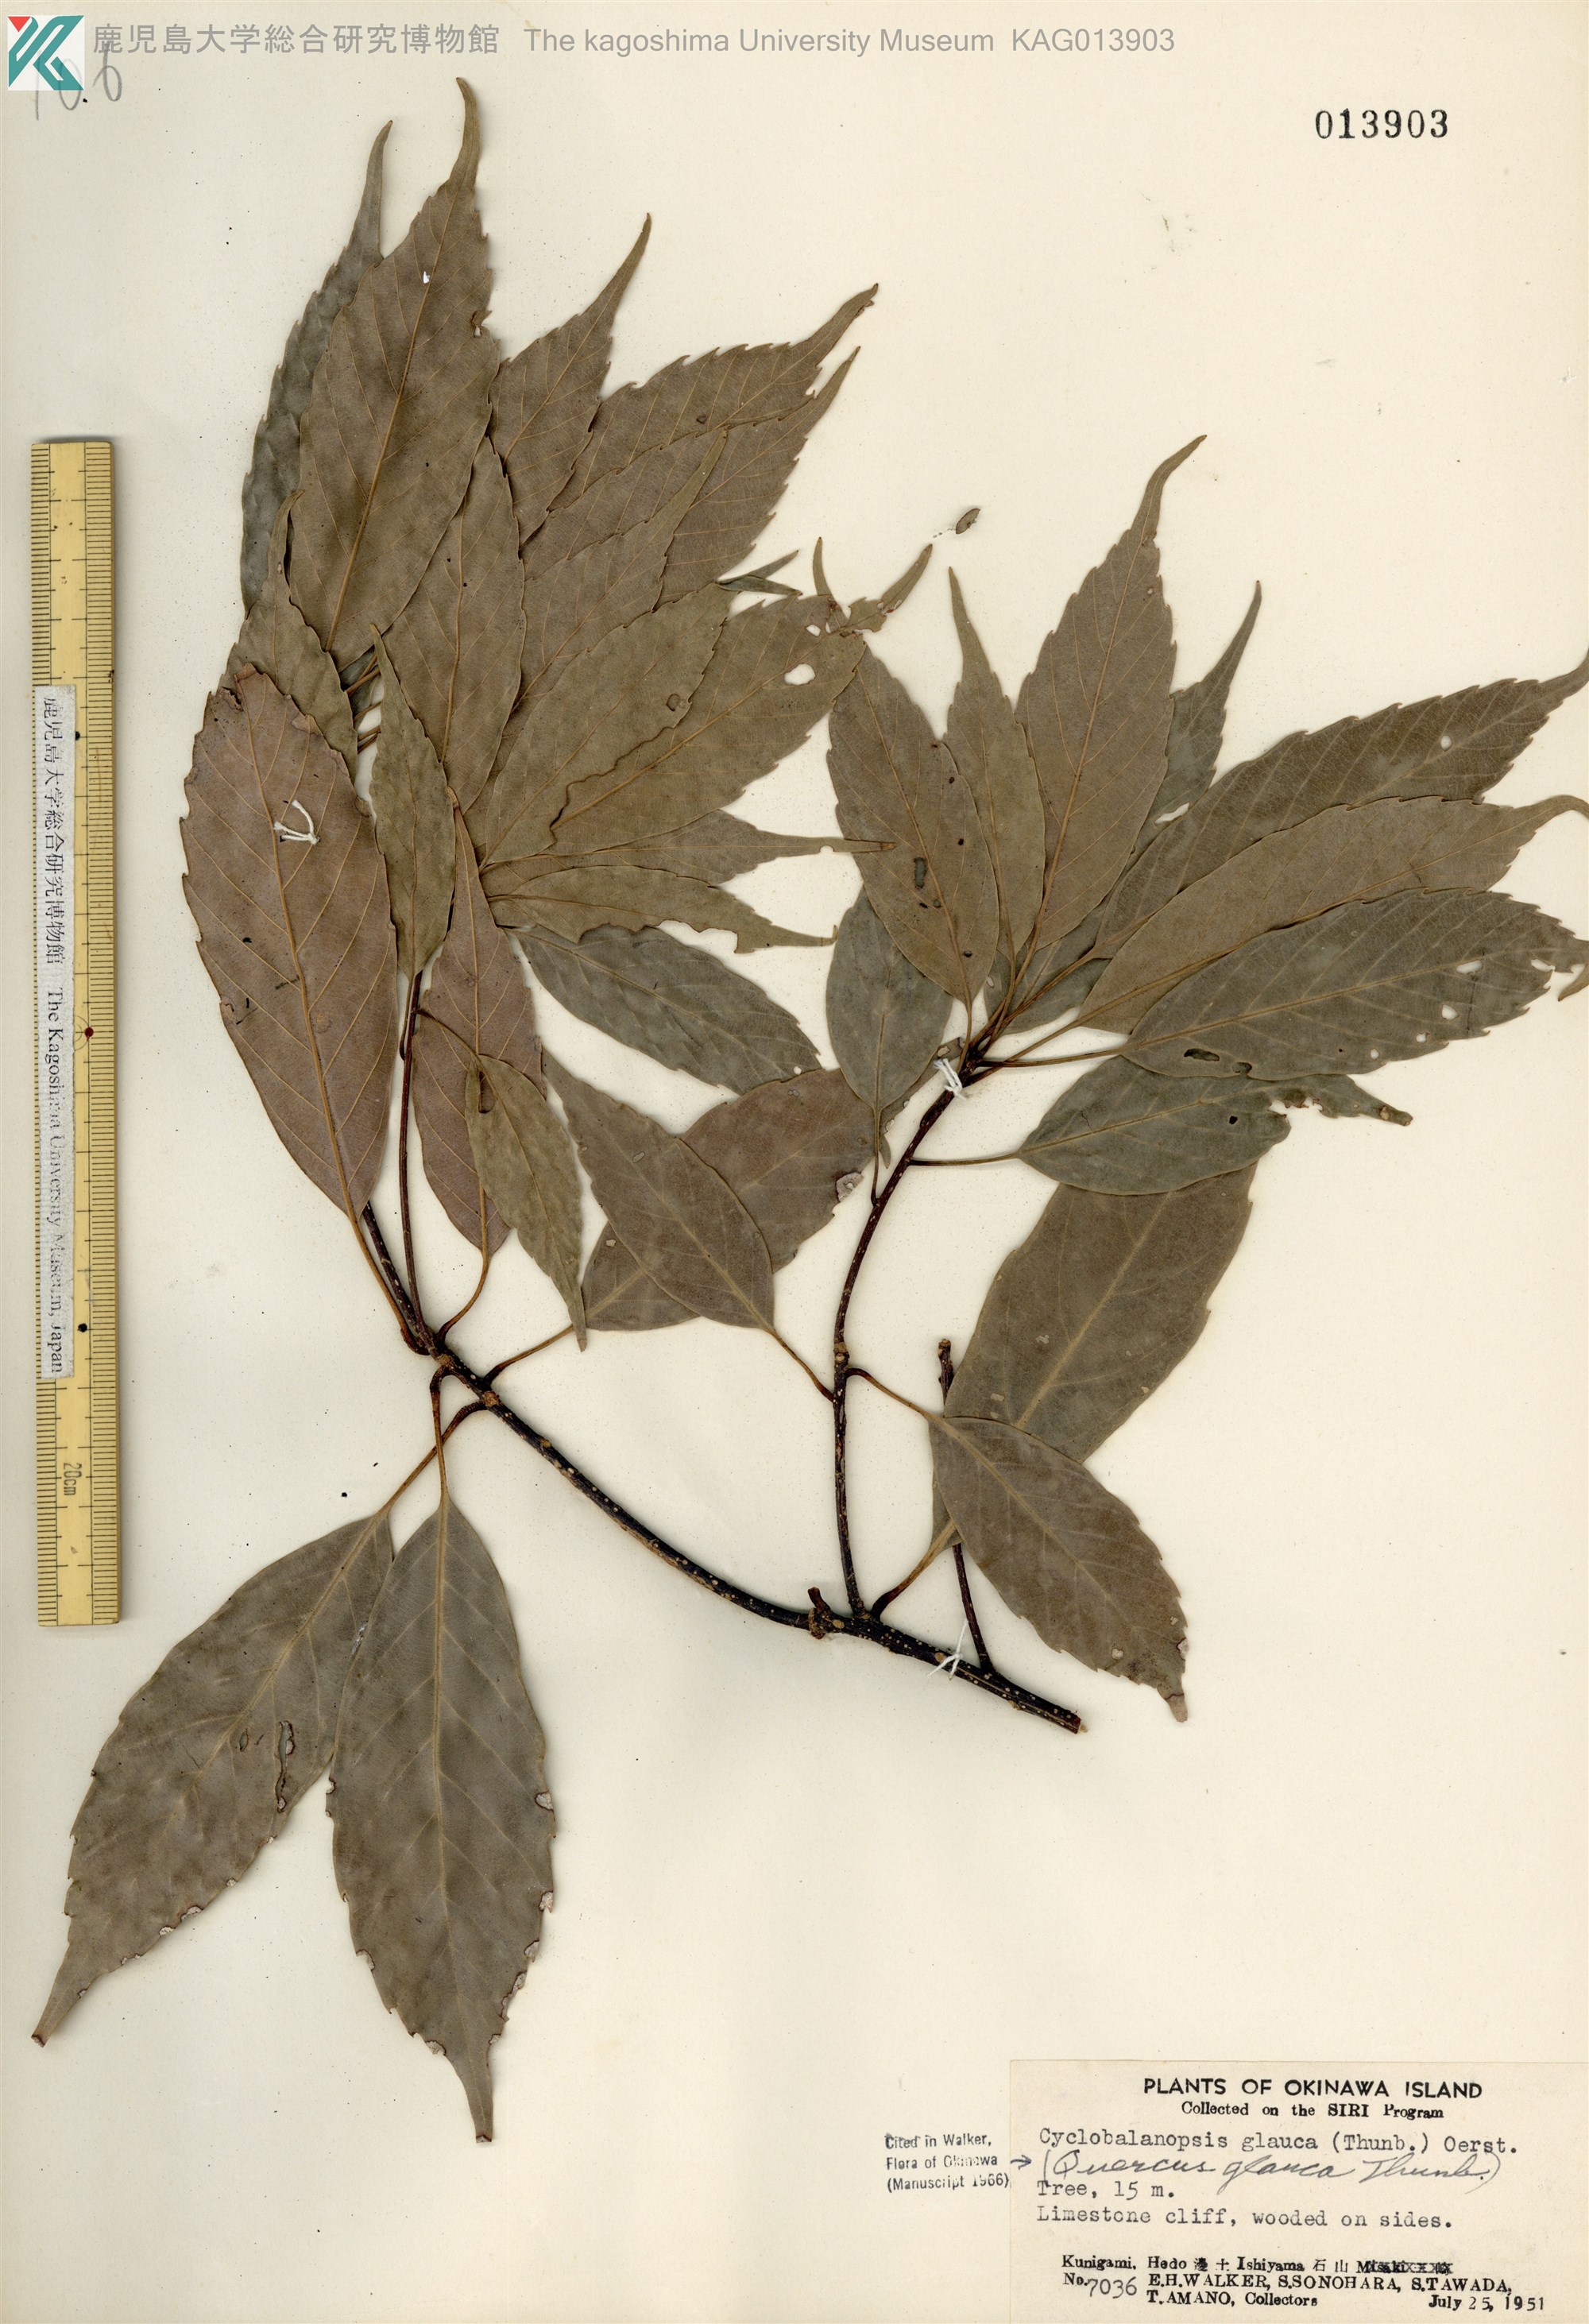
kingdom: Plantae
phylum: Tracheophyta
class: Magnoliopsida
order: Fagales
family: Fagaceae
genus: Quercus
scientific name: Quercus glauca
